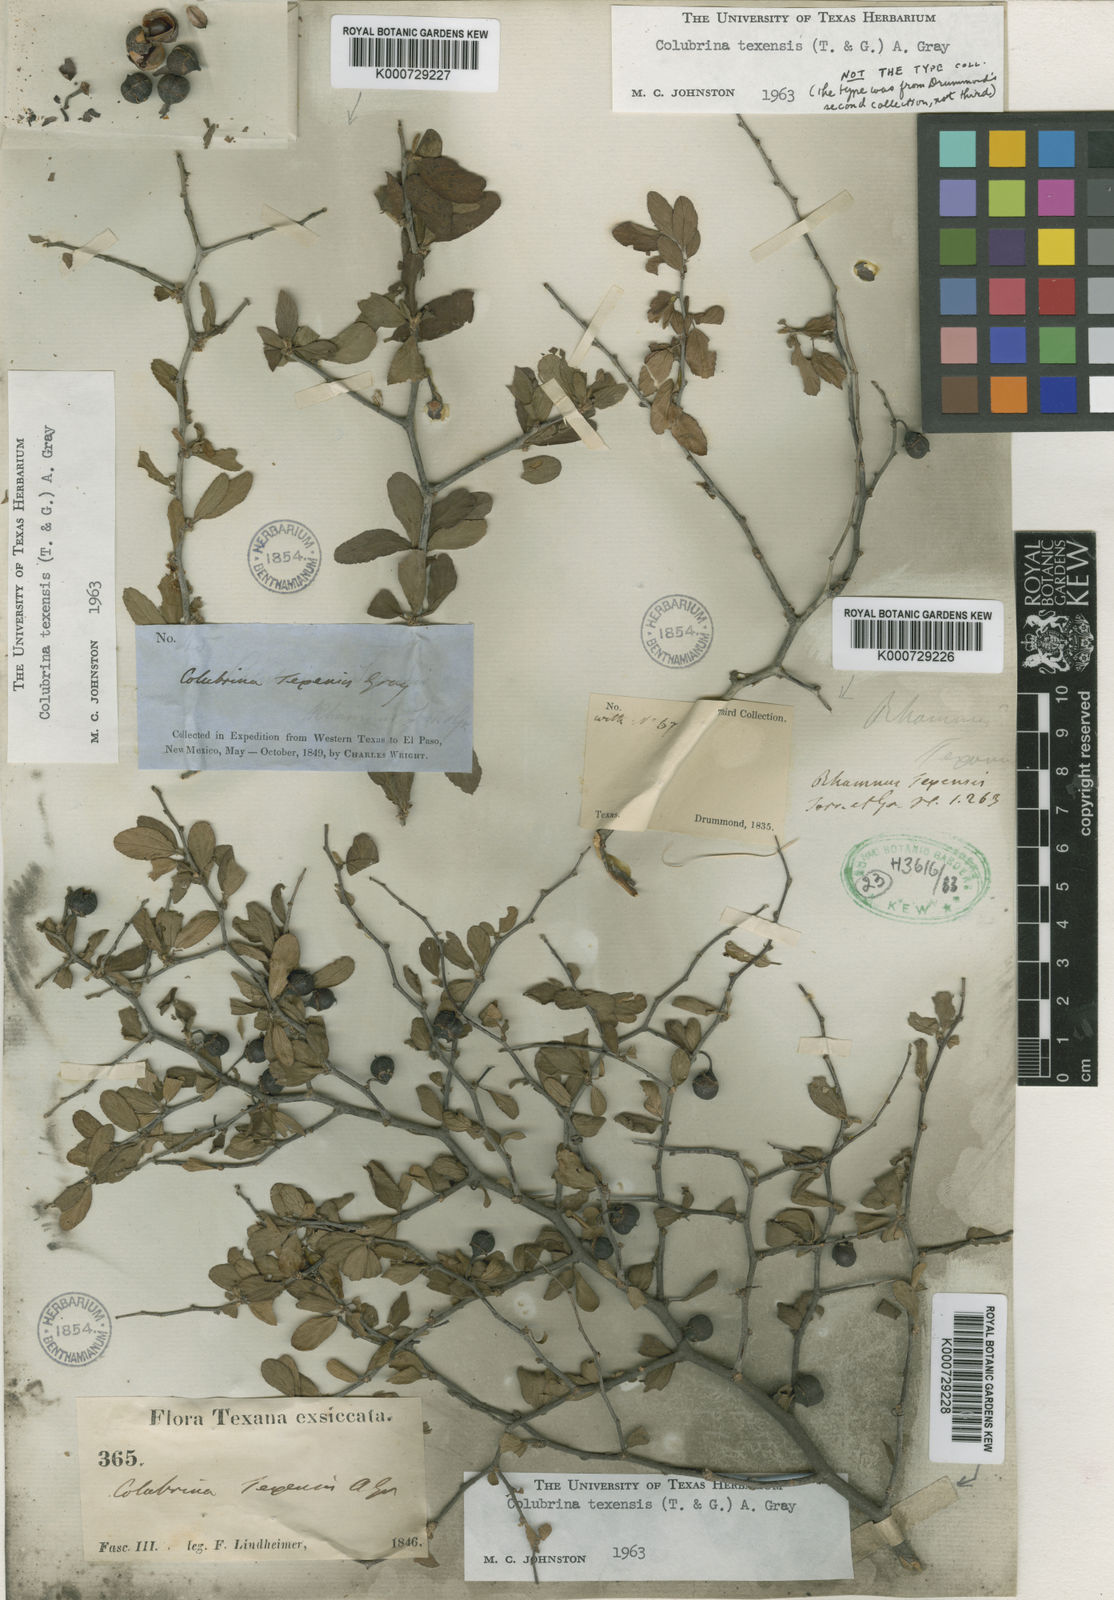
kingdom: Plantae
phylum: Tracheophyta
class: Magnoliopsida
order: Rosales
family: Rhamnaceae
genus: Colubrina
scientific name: Colubrina texensis
